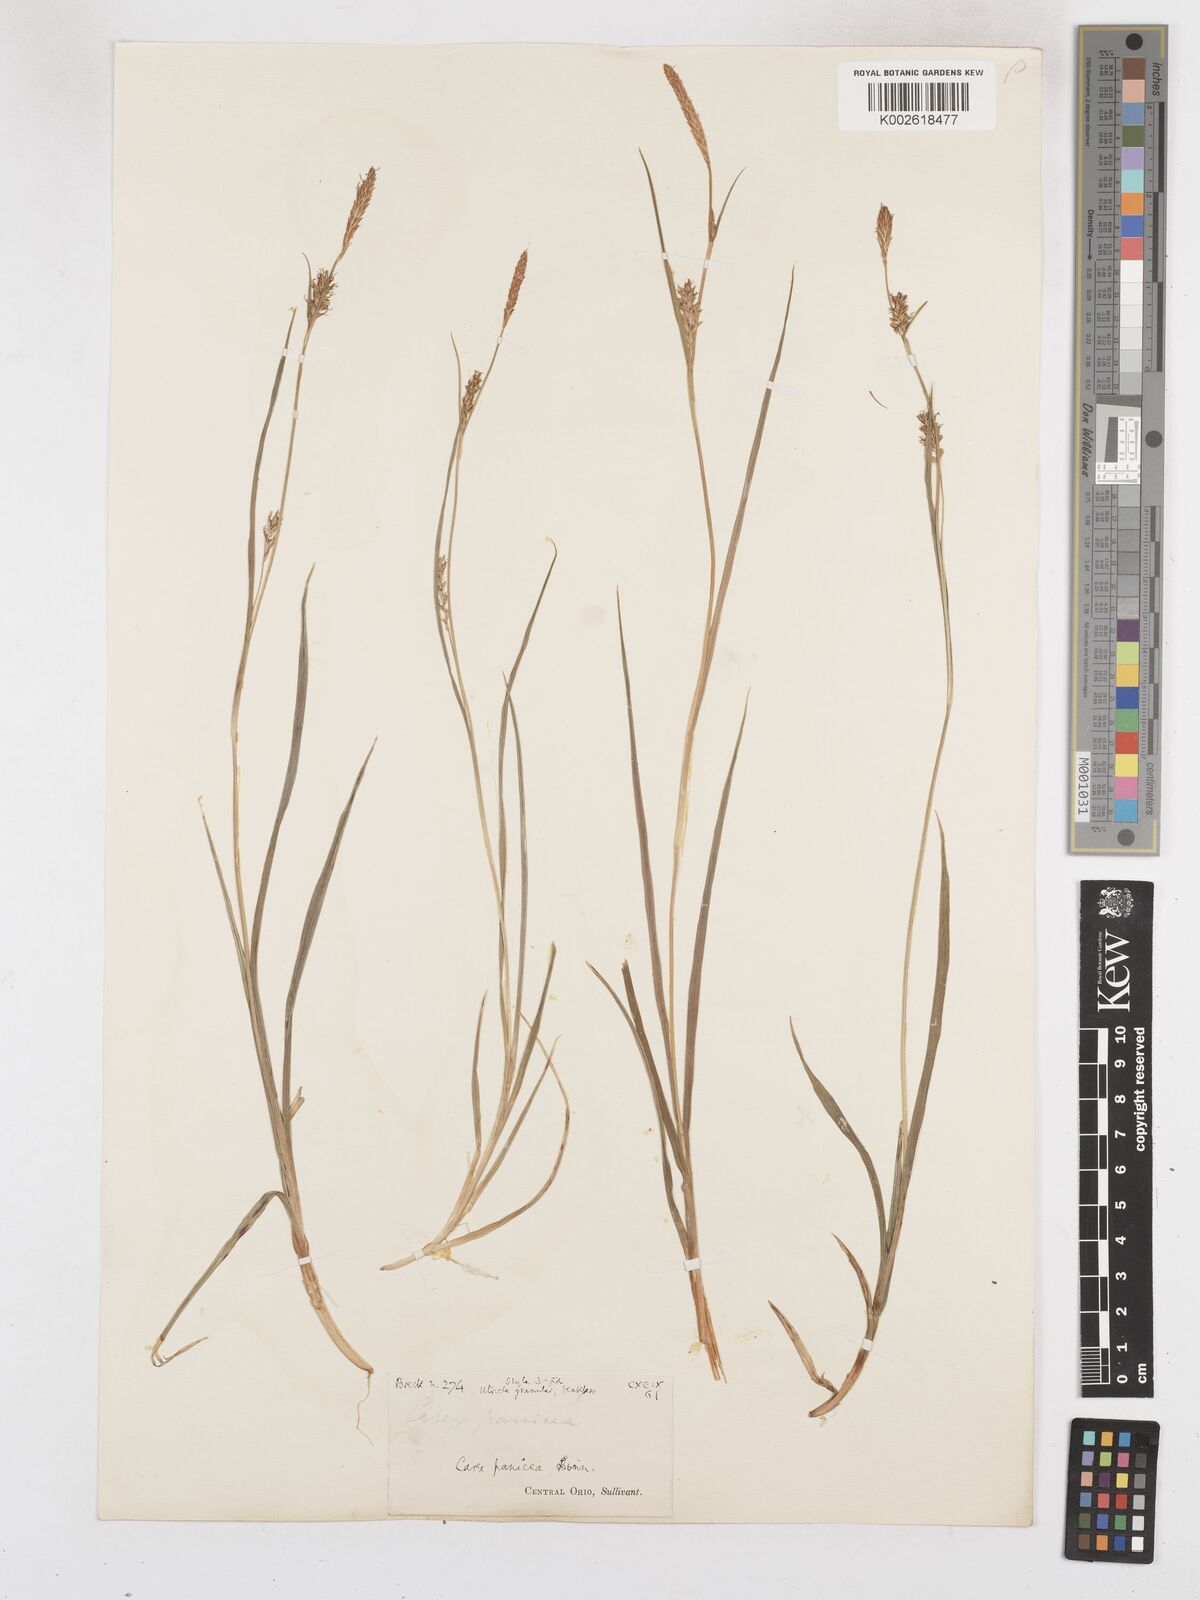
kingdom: Plantae
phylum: Tracheophyta
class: Liliopsida
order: Poales
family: Cyperaceae
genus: Carex
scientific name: Carex panicea
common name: Carnation sedge
